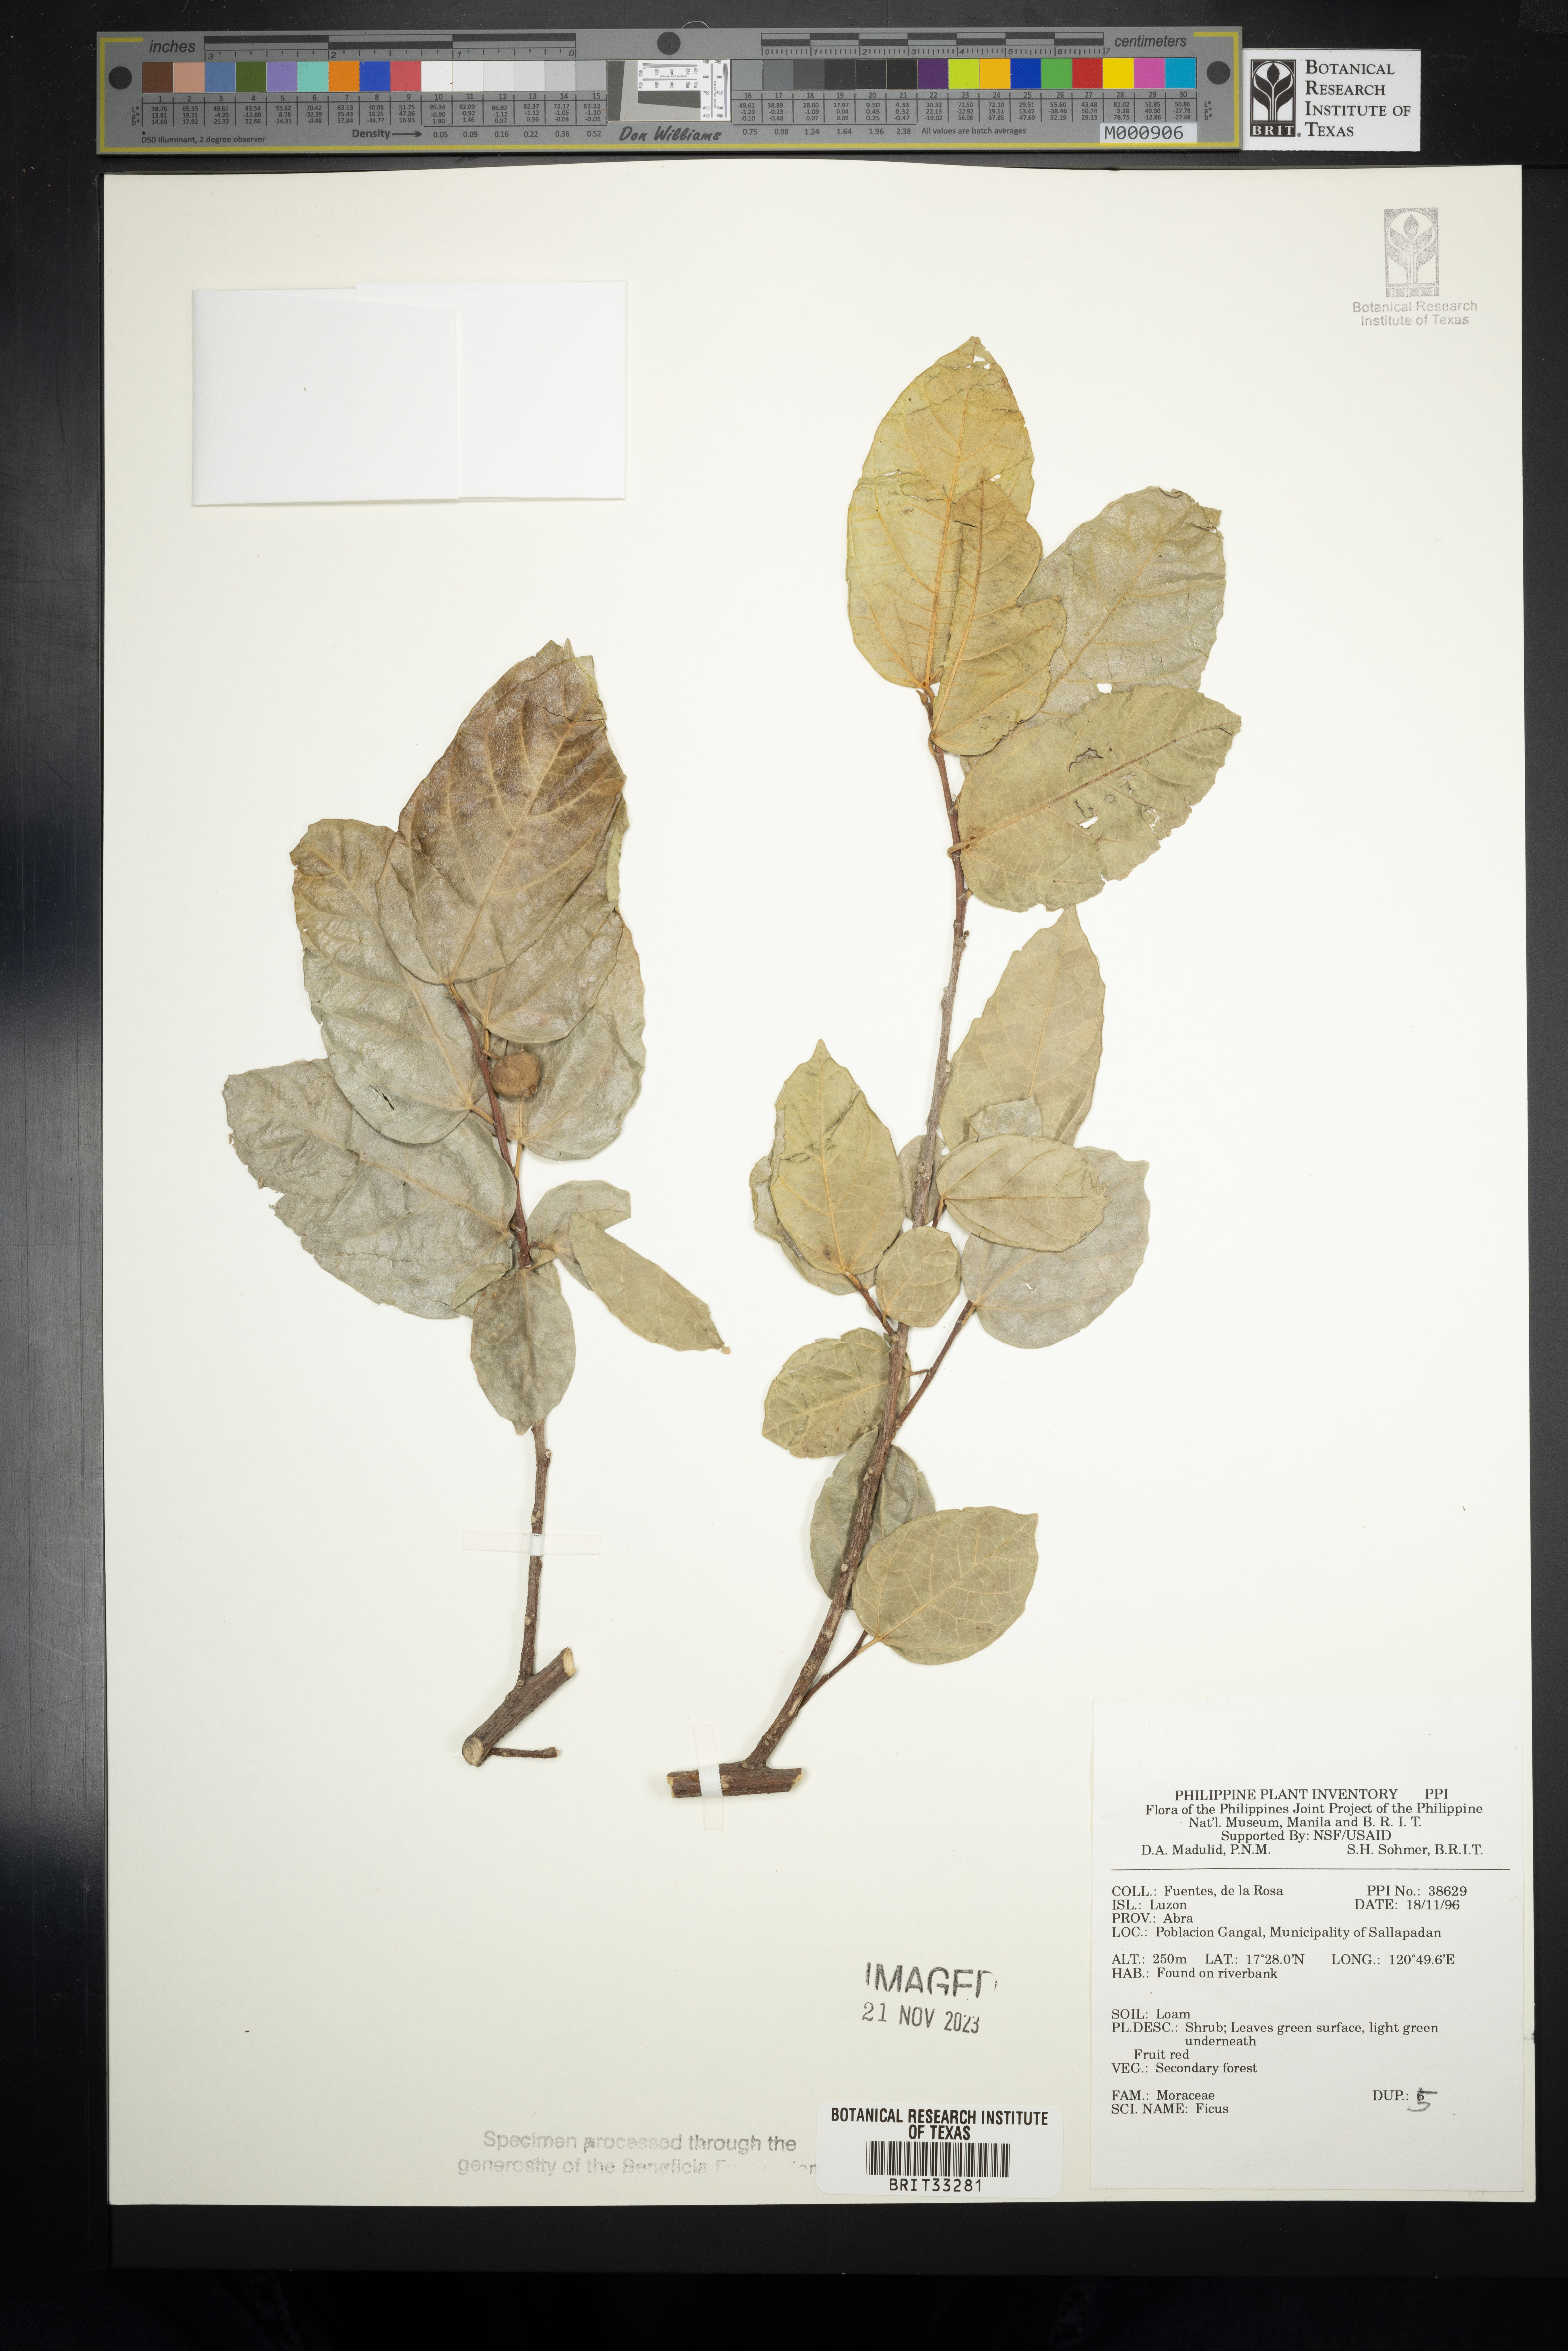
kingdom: Plantae
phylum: Tracheophyta
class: Magnoliopsida
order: Rosales
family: Moraceae
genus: Ficus
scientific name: Ficus
